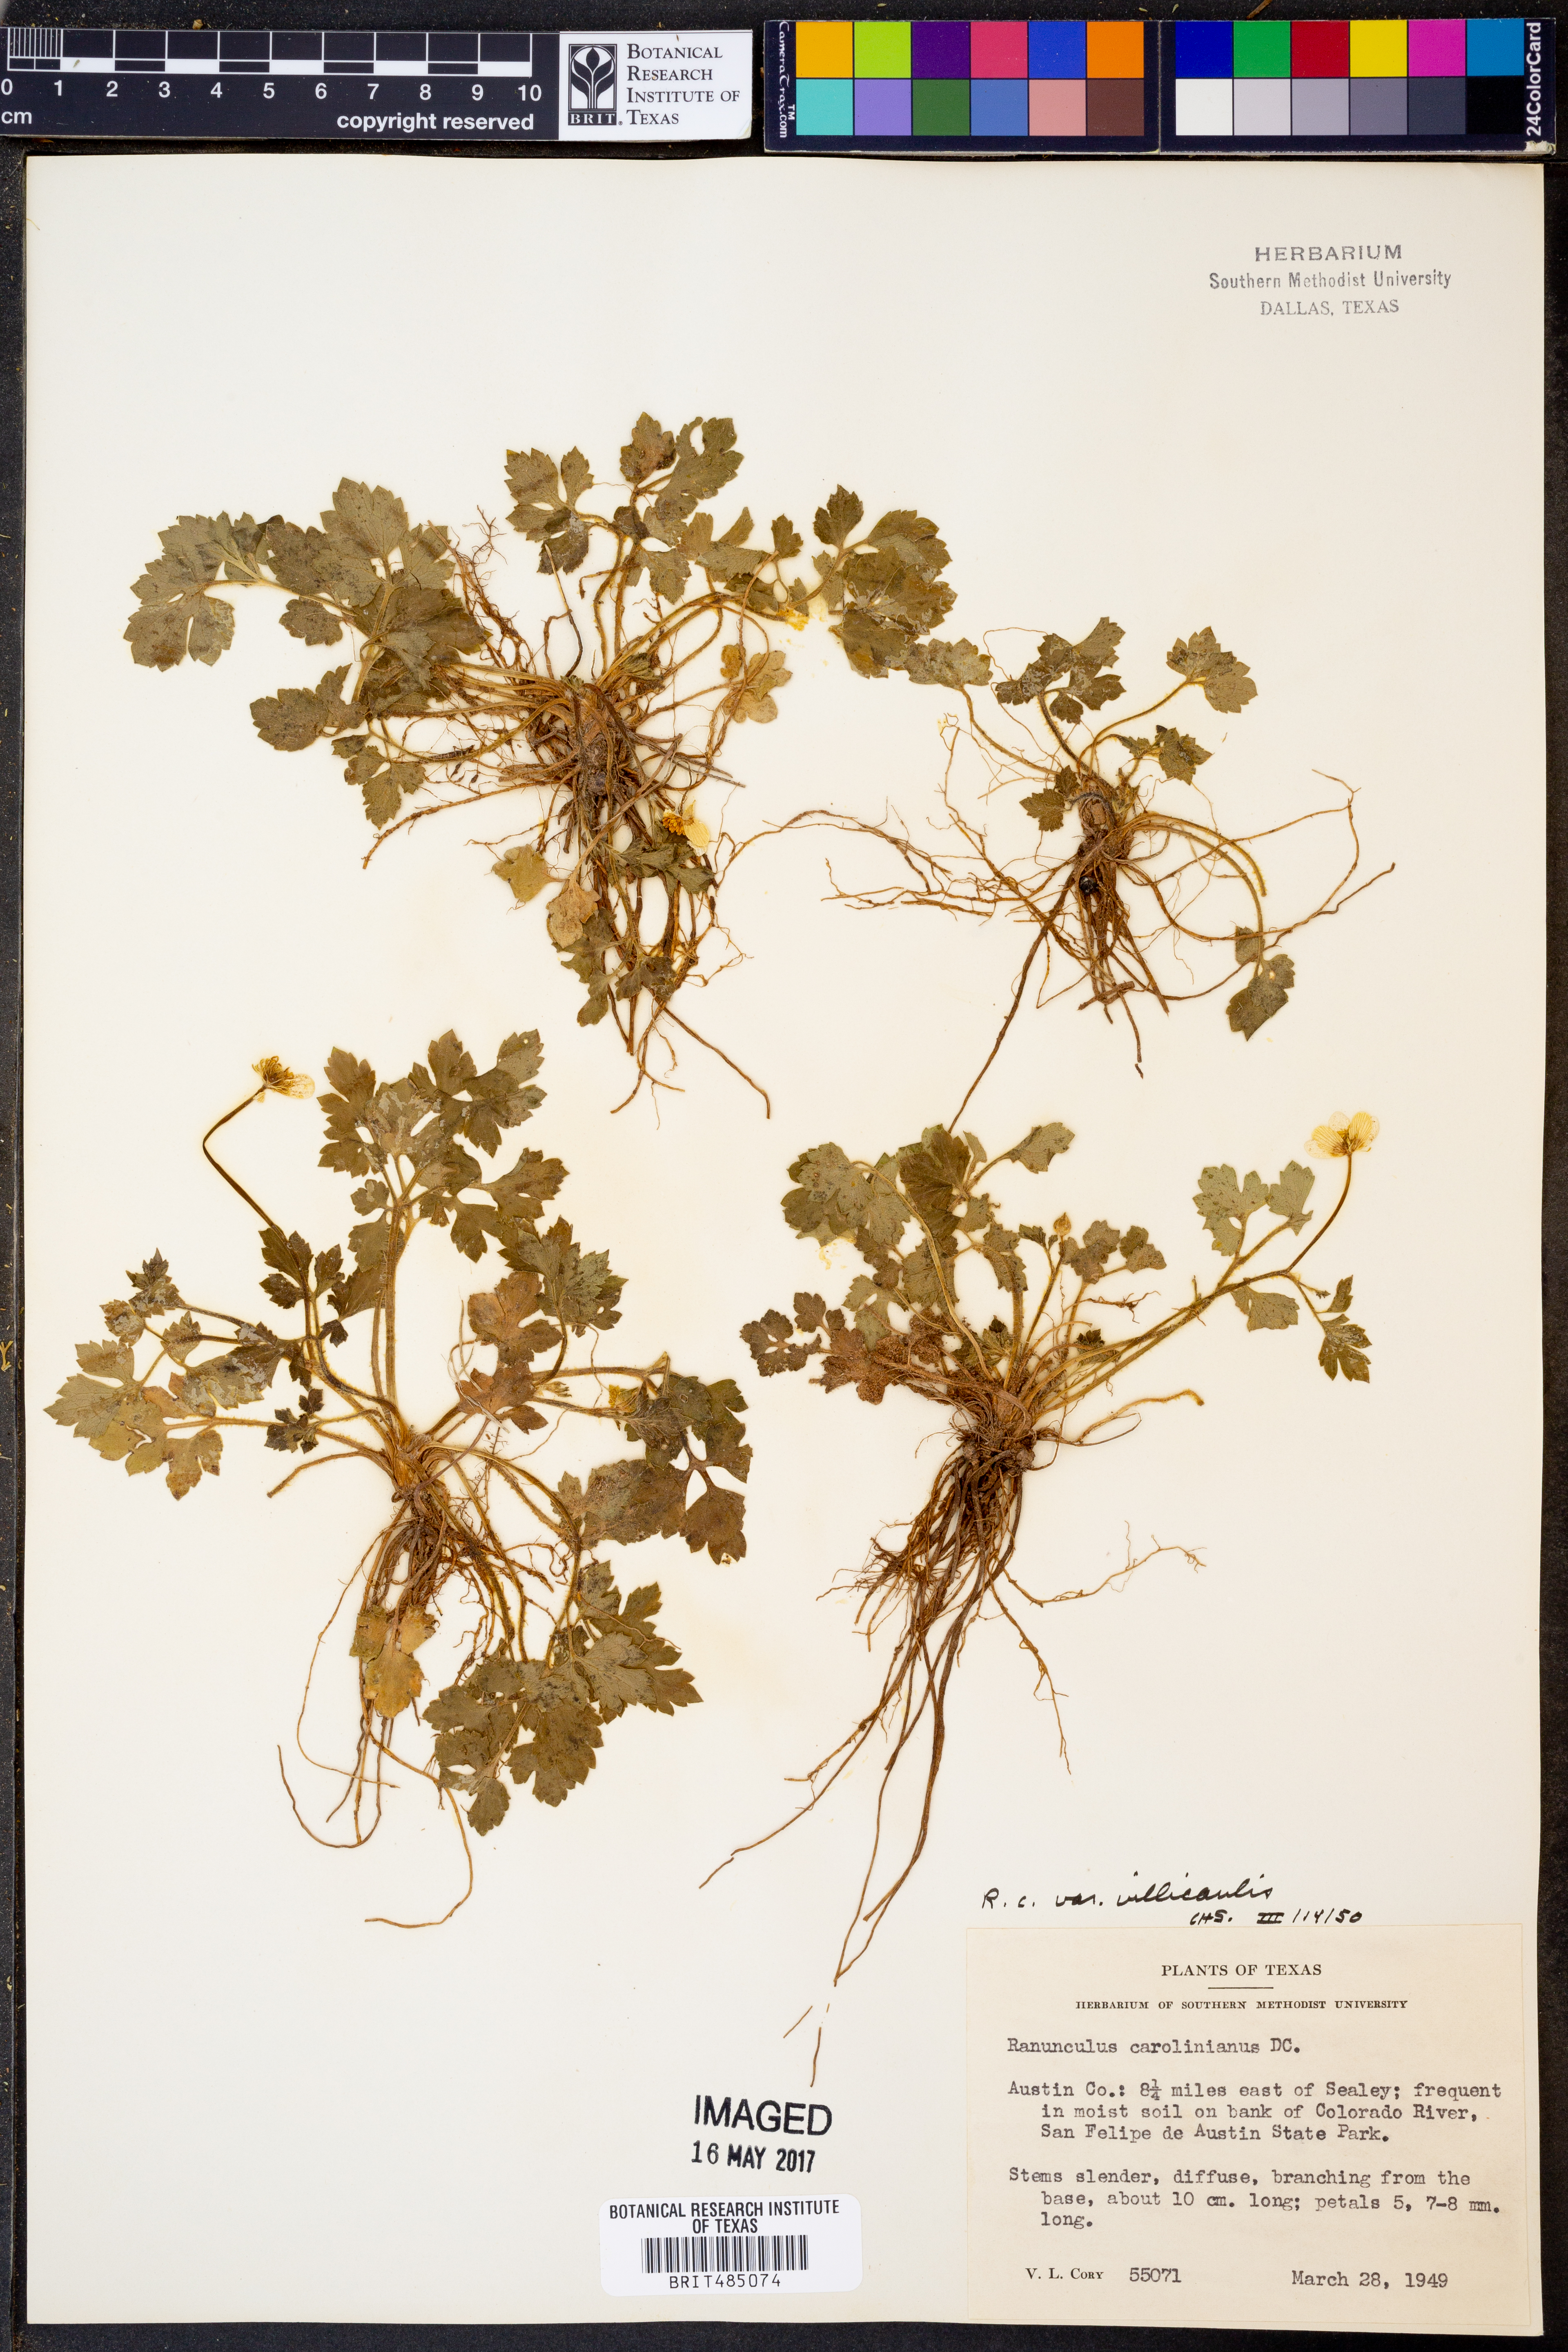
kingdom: Plantae
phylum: Tracheophyta
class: Magnoliopsida
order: Ranunculales
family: Ranunculaceae
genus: Ranunculus
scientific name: Ranunculus hispidus
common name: Bristly buttercup
